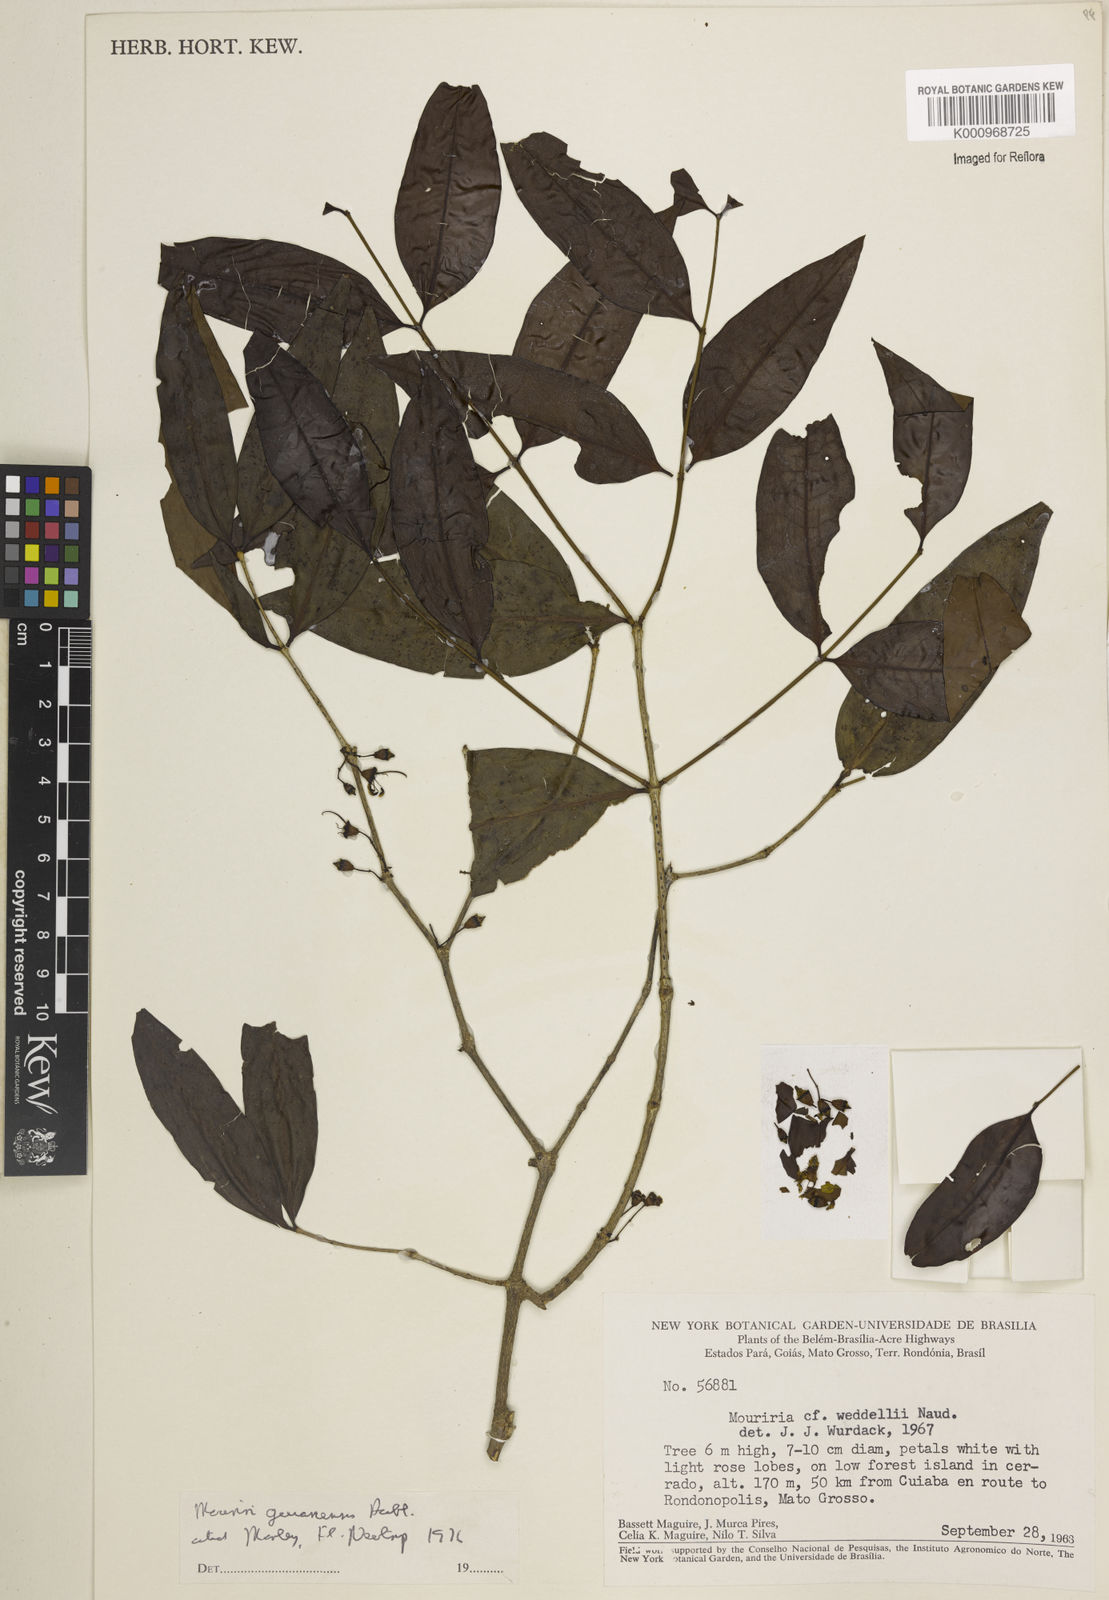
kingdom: Plantae
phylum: Tracheophyta
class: Magnoliopsida
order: Myrtales
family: Melastomataceae
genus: Mouriri
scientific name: Mouriri guianensis
